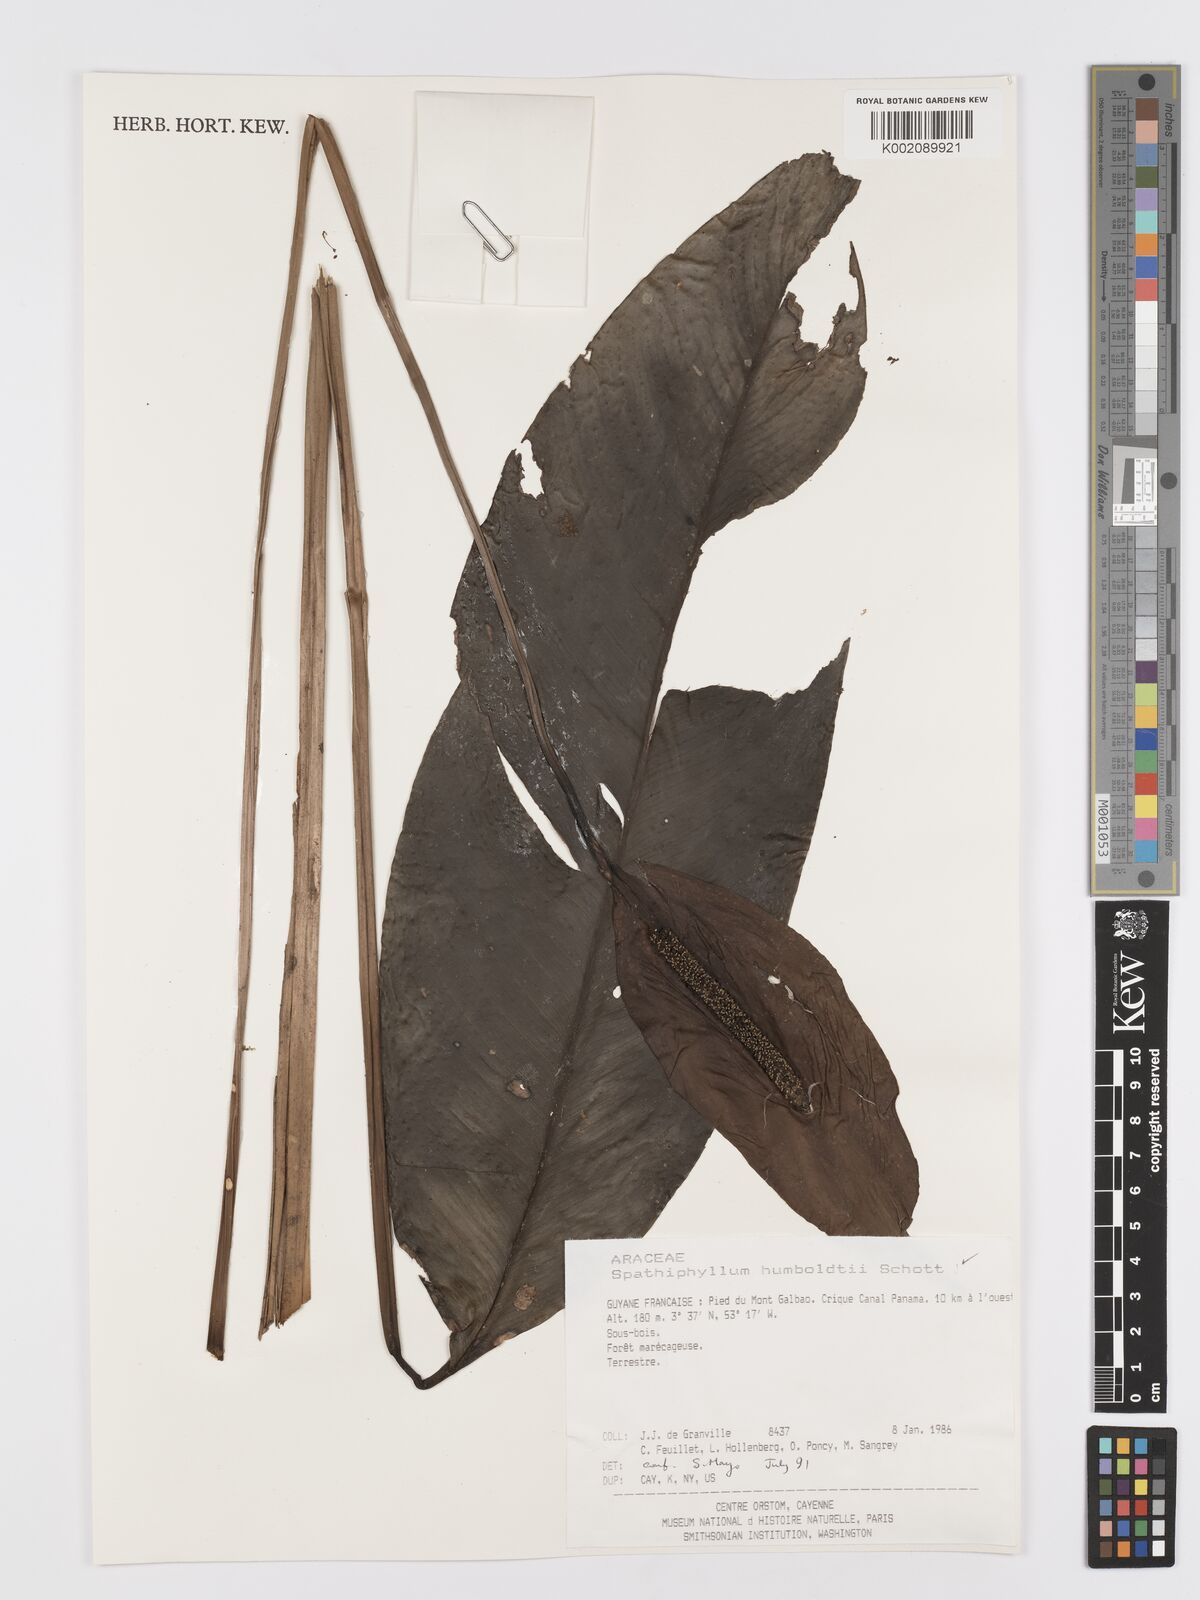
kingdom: Plantae
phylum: Tracheophyta
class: Liliopsida
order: Alismatales
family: Araceae
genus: Spathiphyllum
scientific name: Spathiphyllum humboldtii
